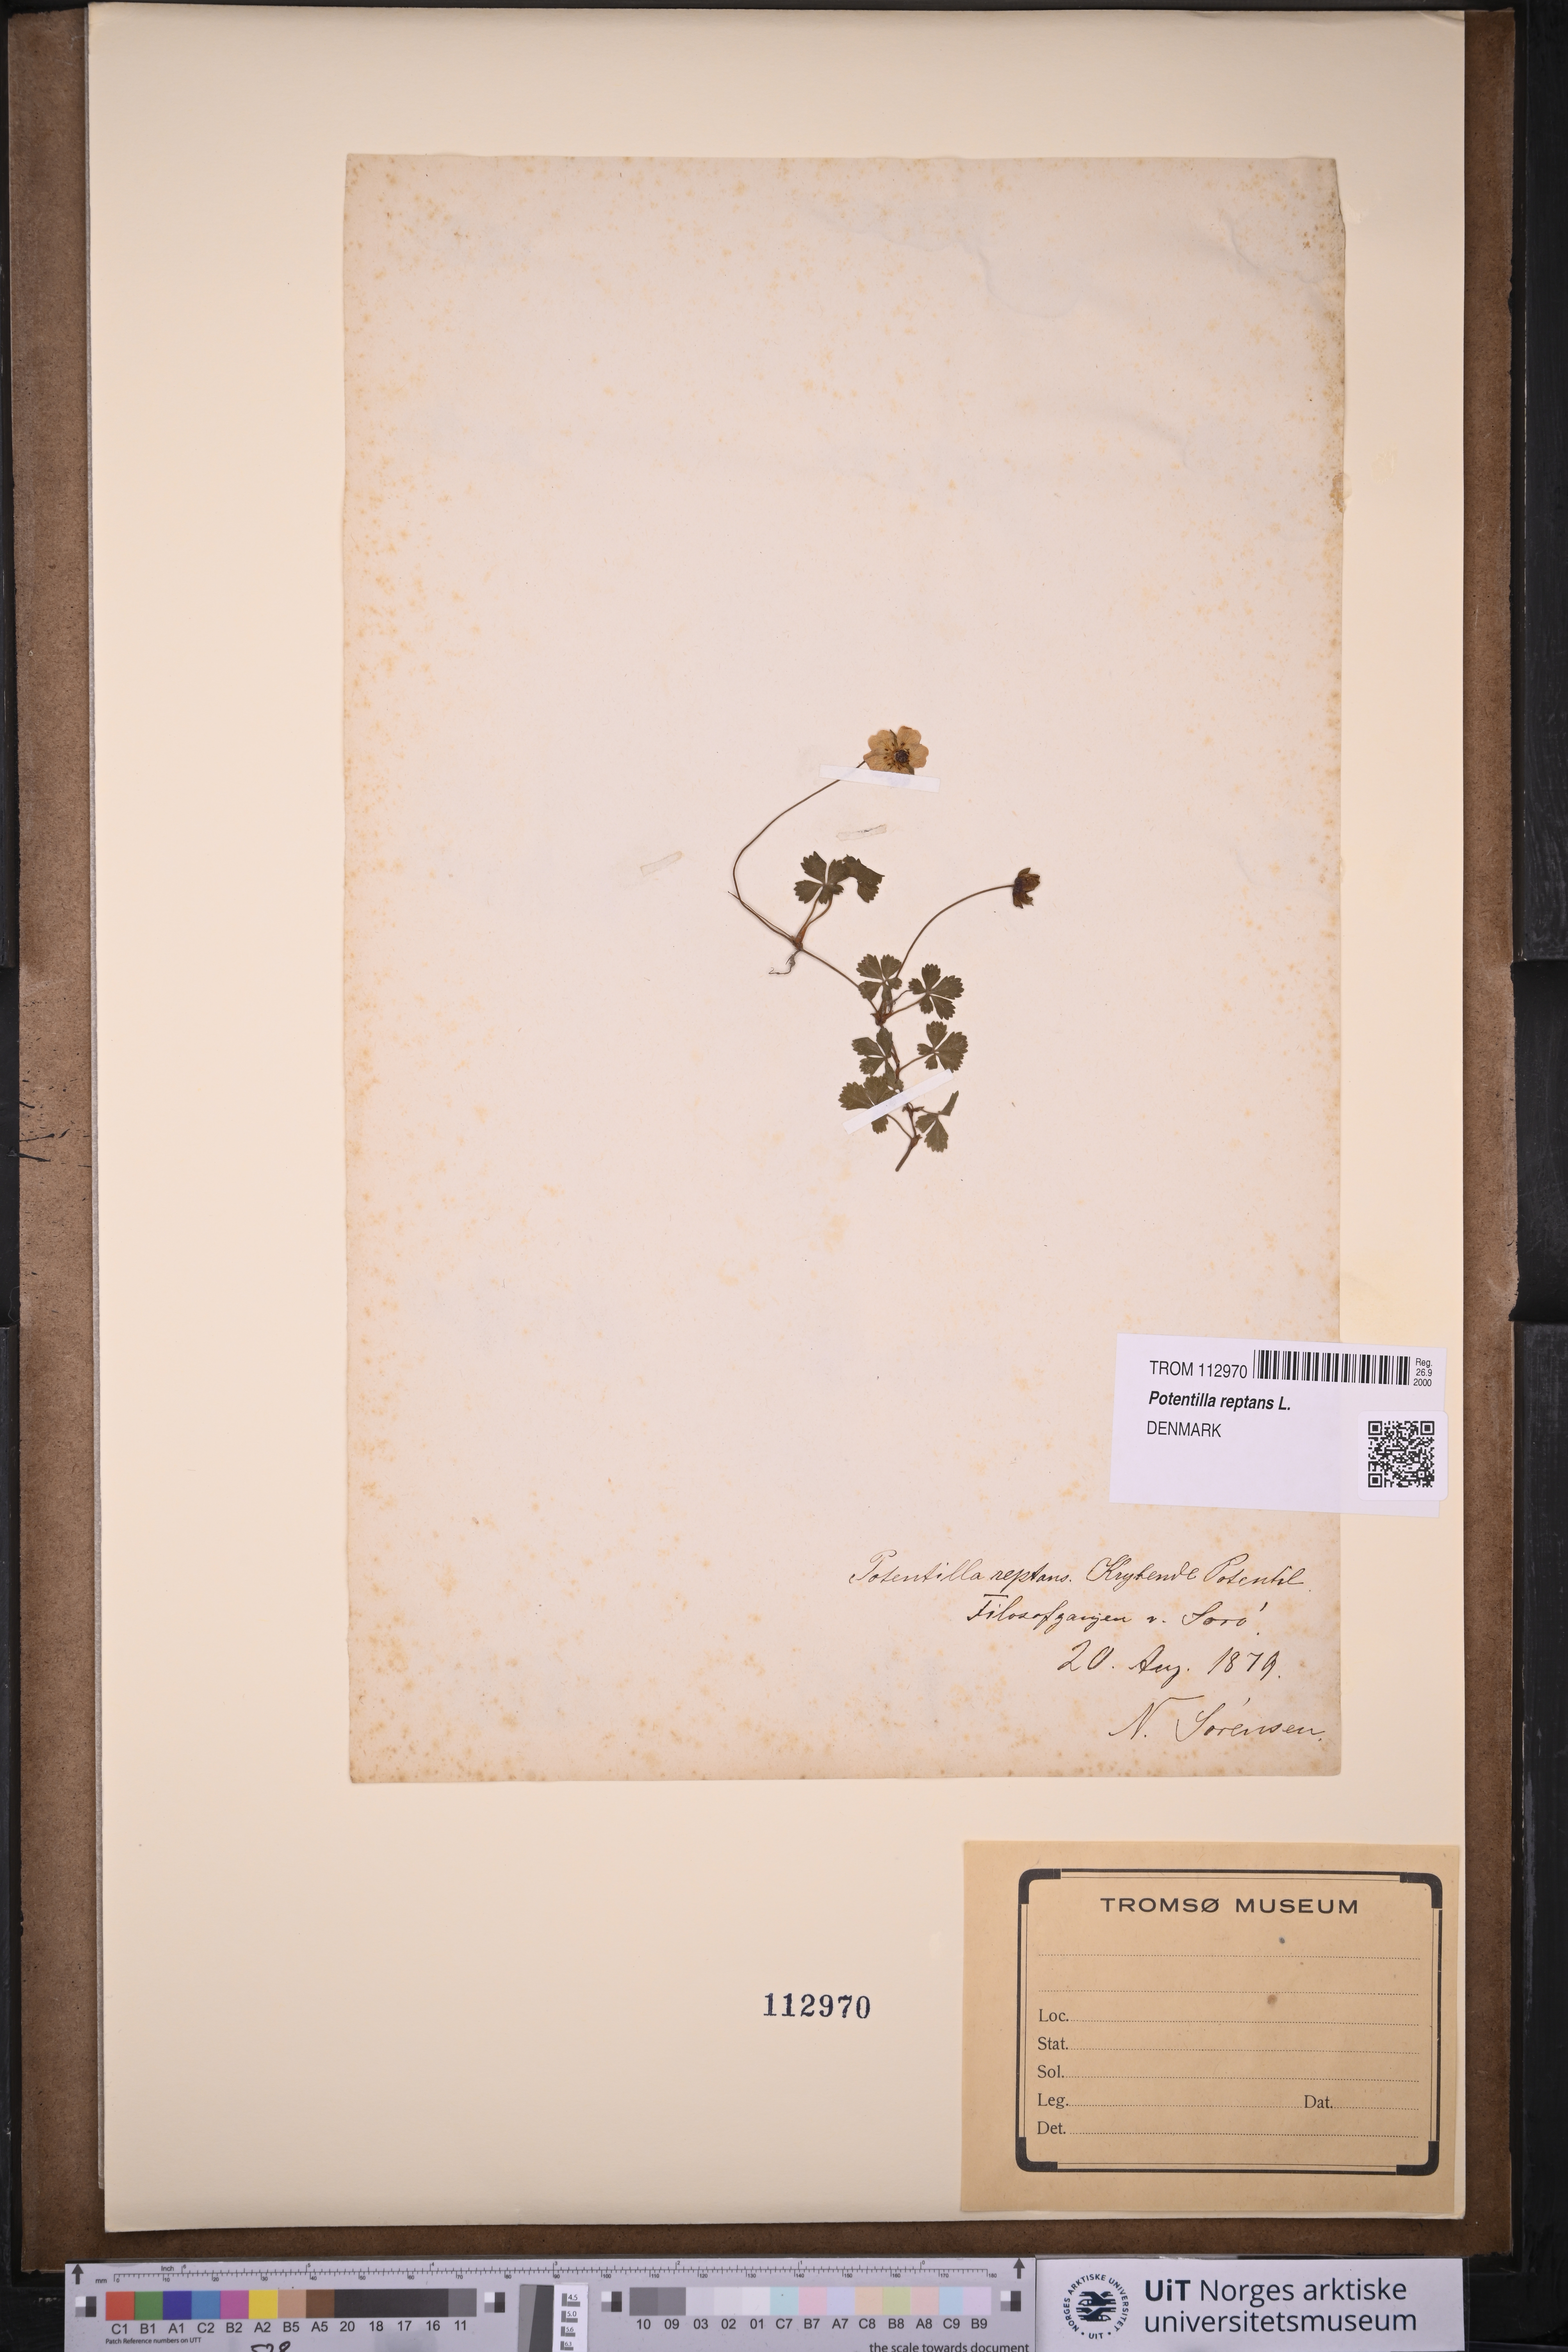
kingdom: Plantae
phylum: Tracheophyta
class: Magnoliopsida
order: Rosales
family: Rosaceae
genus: Potentilla
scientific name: Potentilla reptans
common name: Creeping cinquefoil
